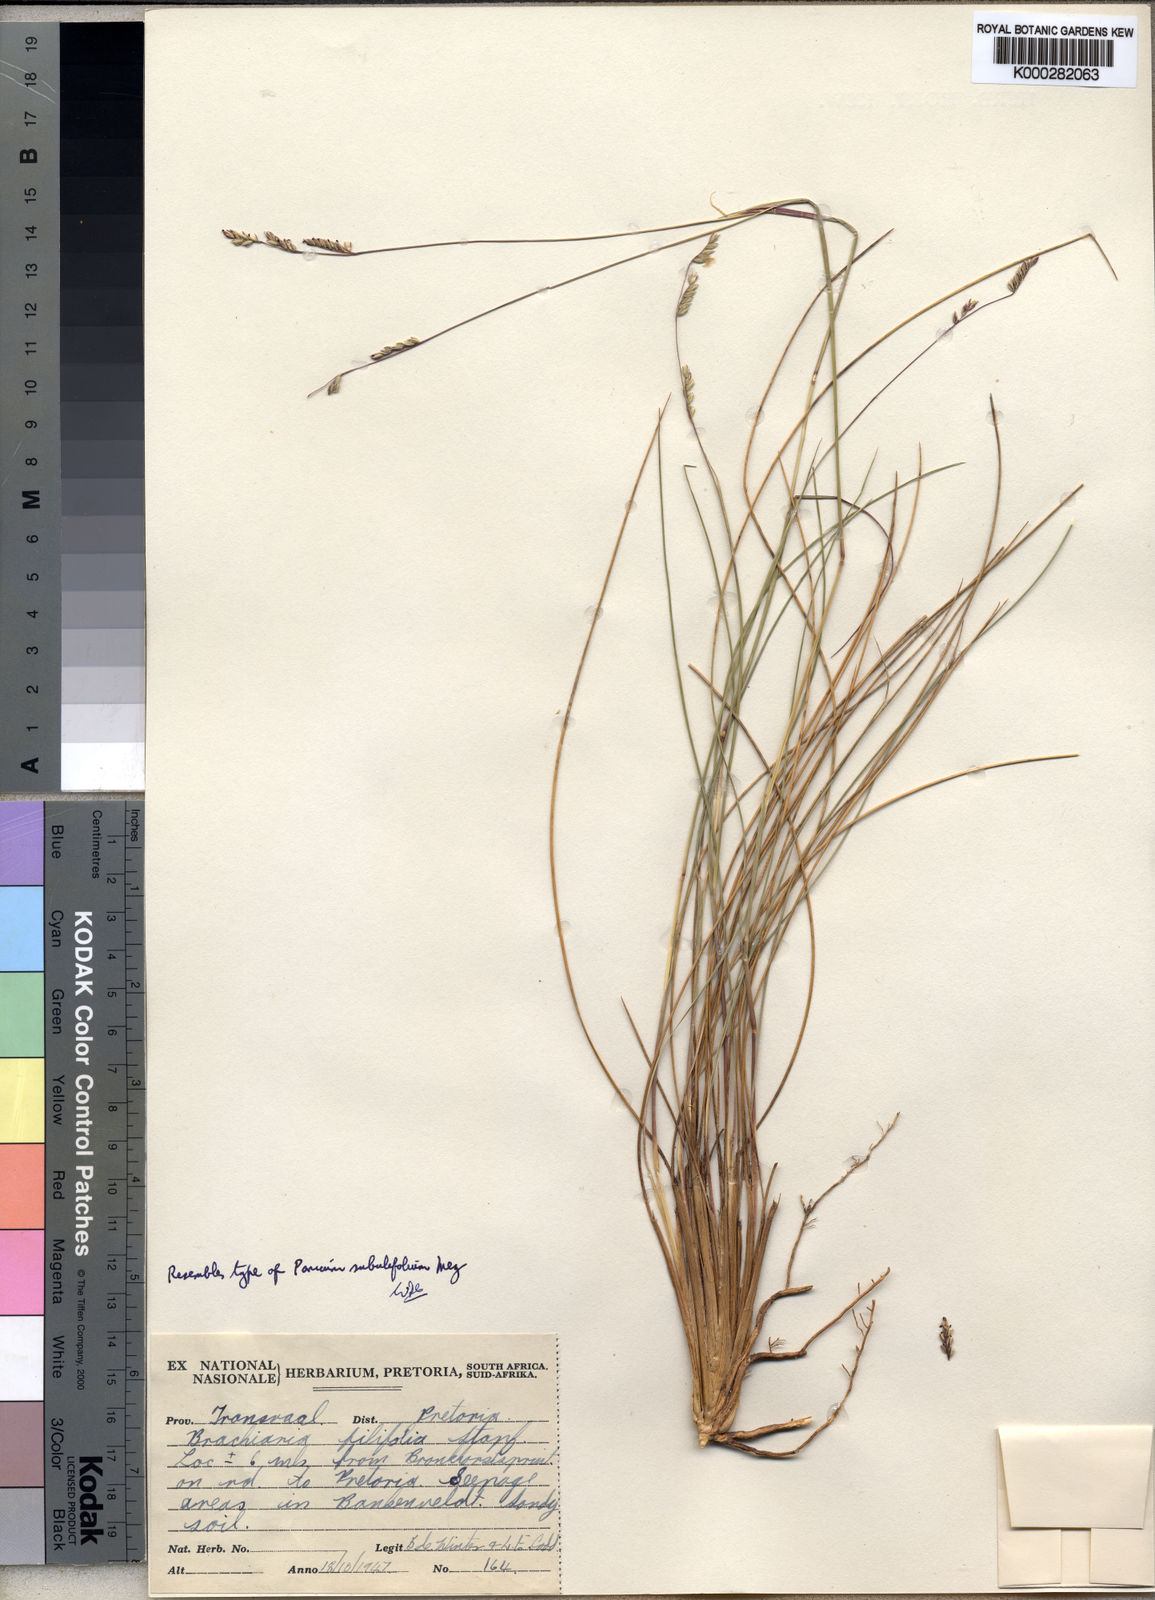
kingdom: Plantae
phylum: Tracheophyta
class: Liliopsida
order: Poales
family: Poaceae
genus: Urochloa
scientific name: Urochloa subulifolia
